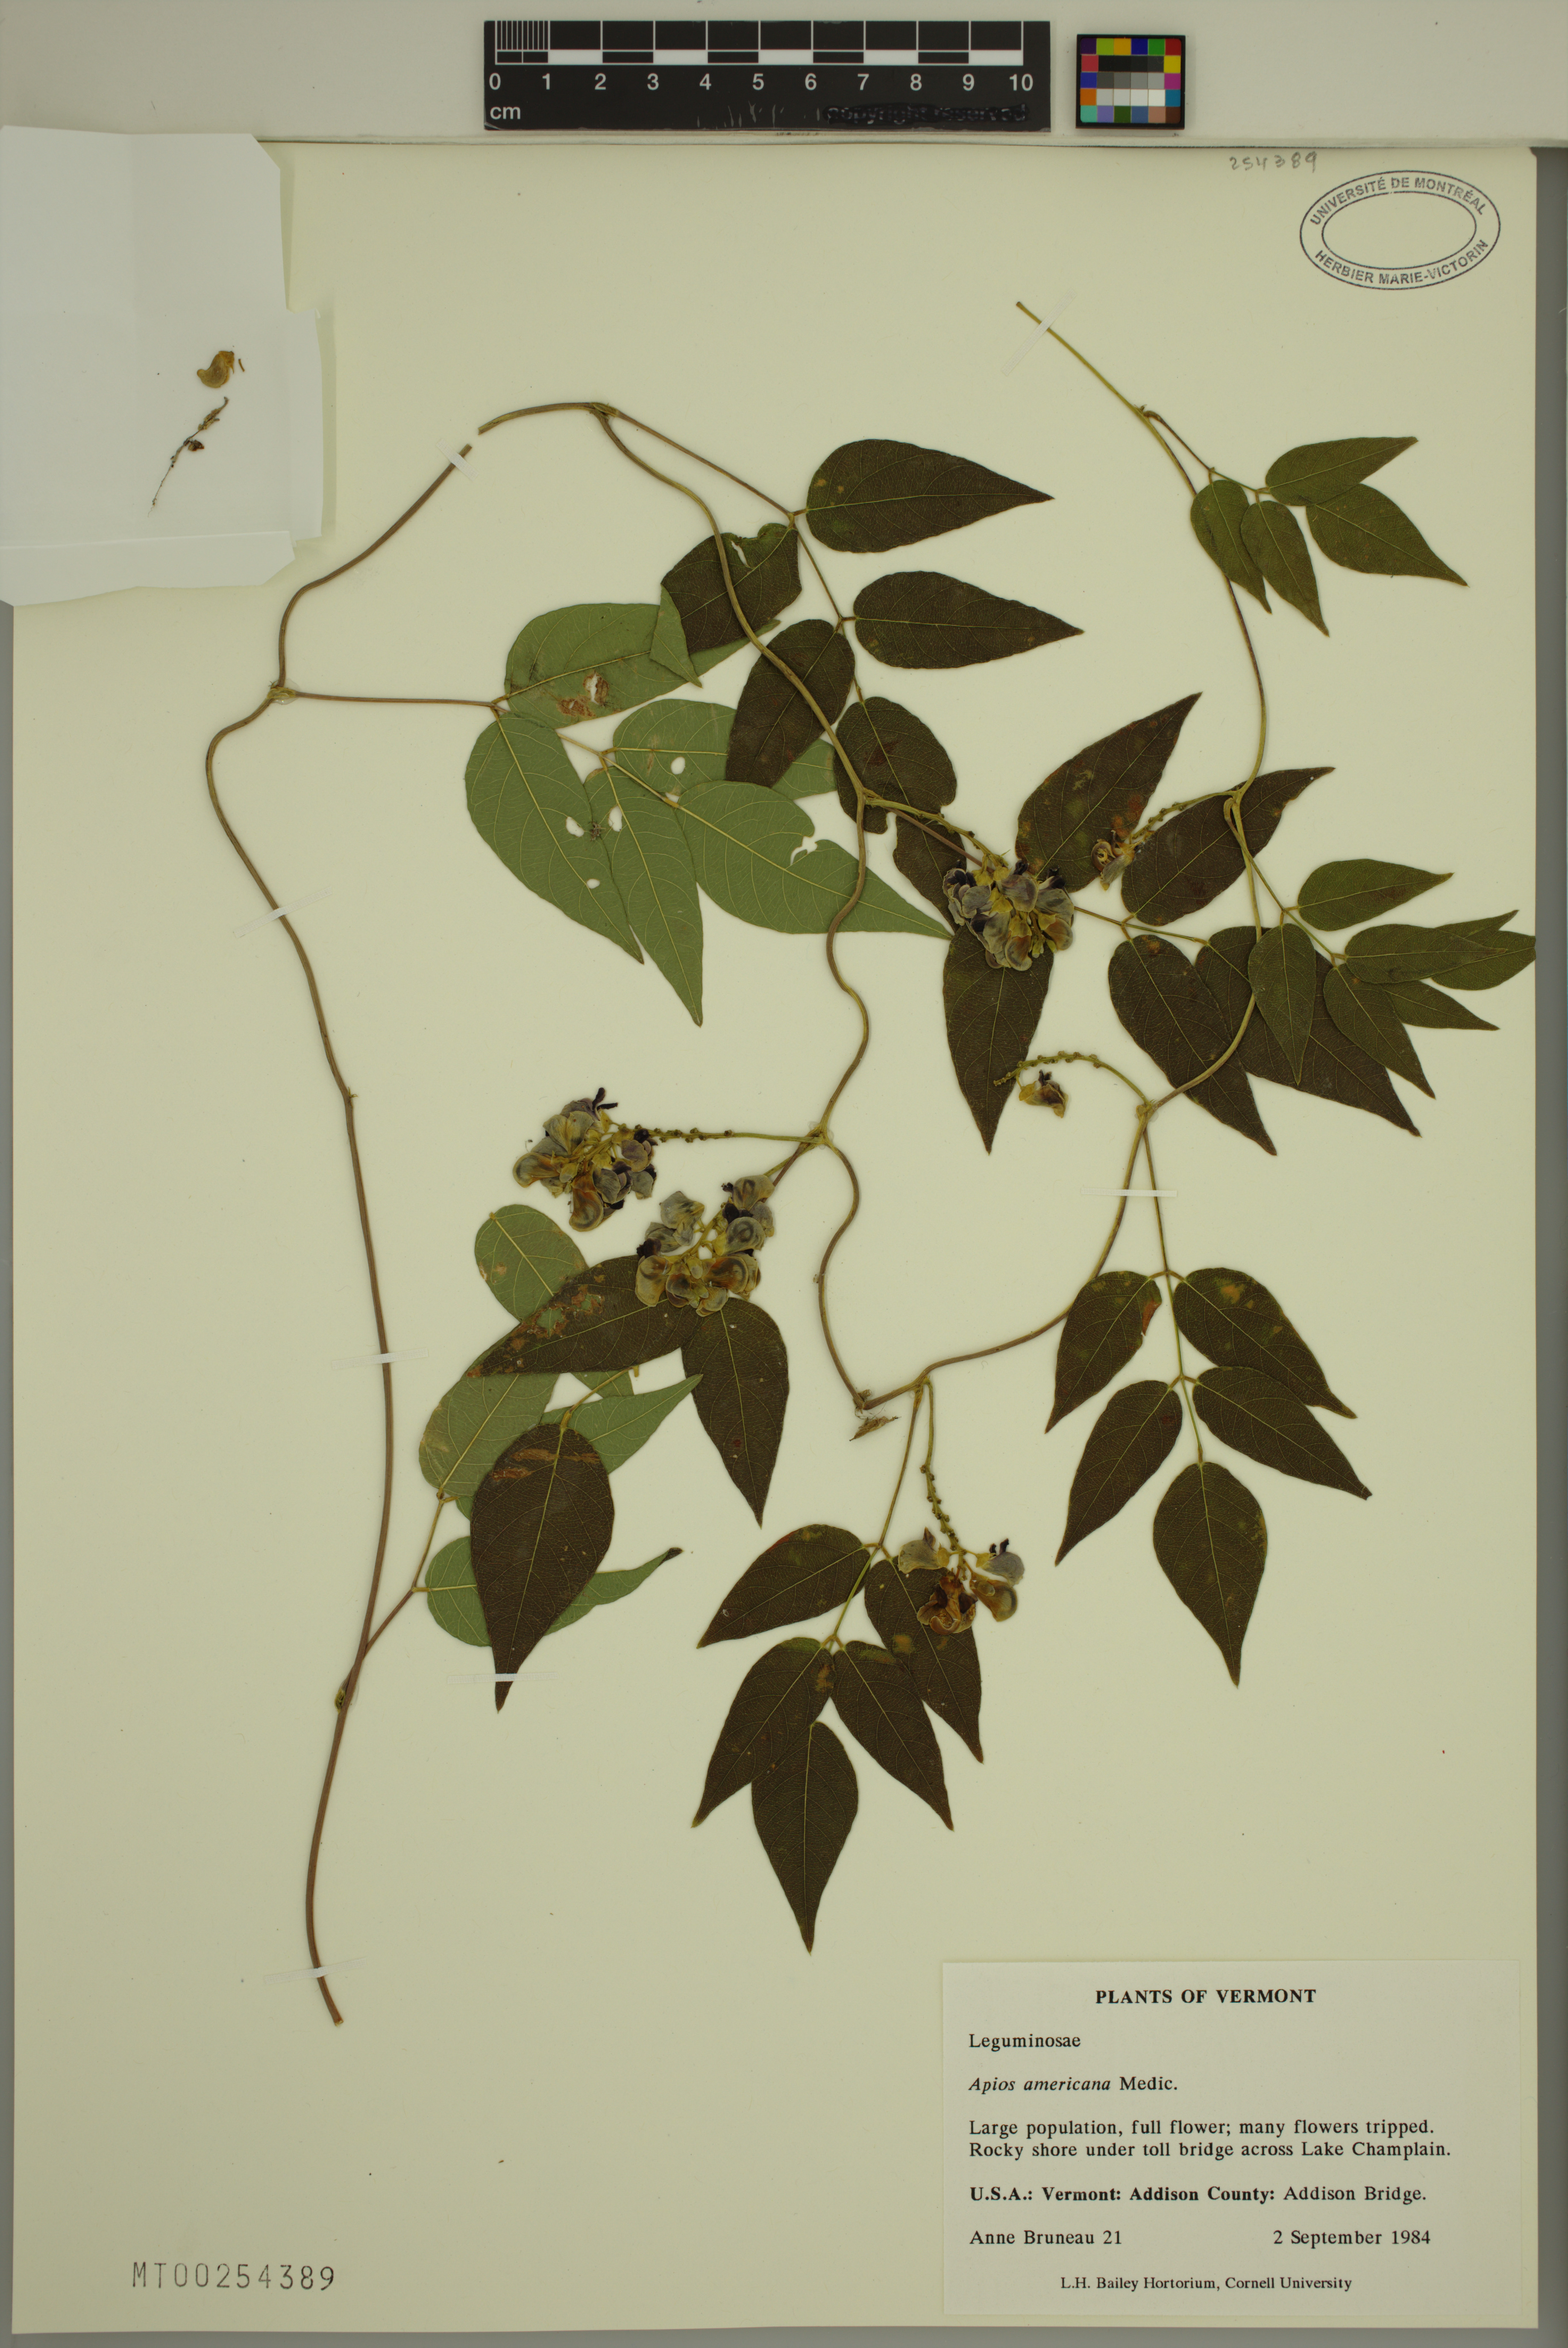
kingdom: Plantae
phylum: Tracheophyta
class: Magnoliopsida
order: Fabales
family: Fabaceae
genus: Apios
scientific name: Apios americana
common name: American potato-bean
